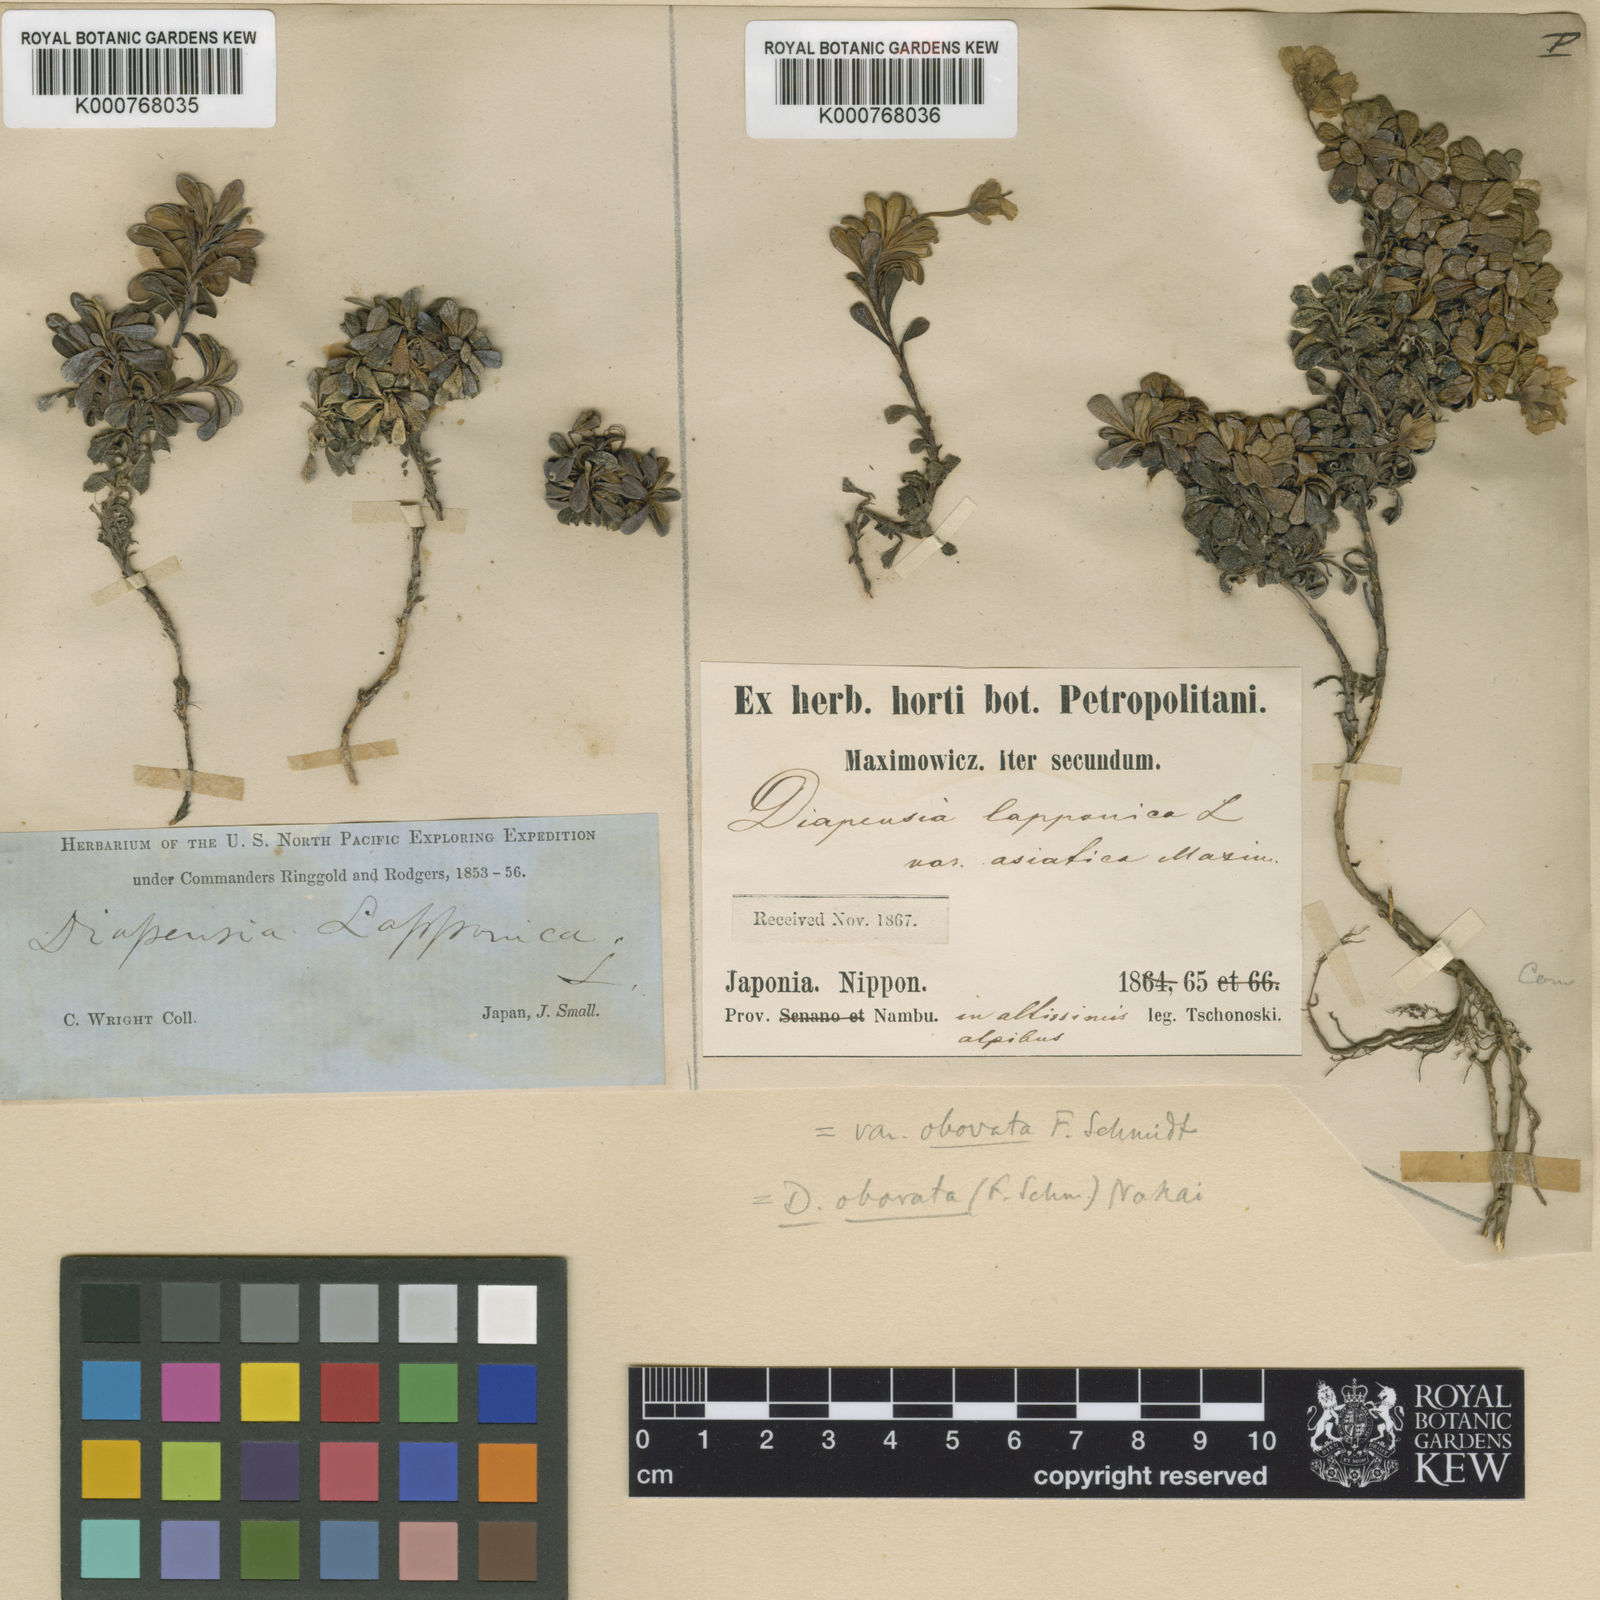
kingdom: Plantae
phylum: Tracheophyta
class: Magnoliopsida
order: Ericales
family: Diapensiaceae
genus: Diapensia
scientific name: Diapensia lapponica
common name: Diapensia
